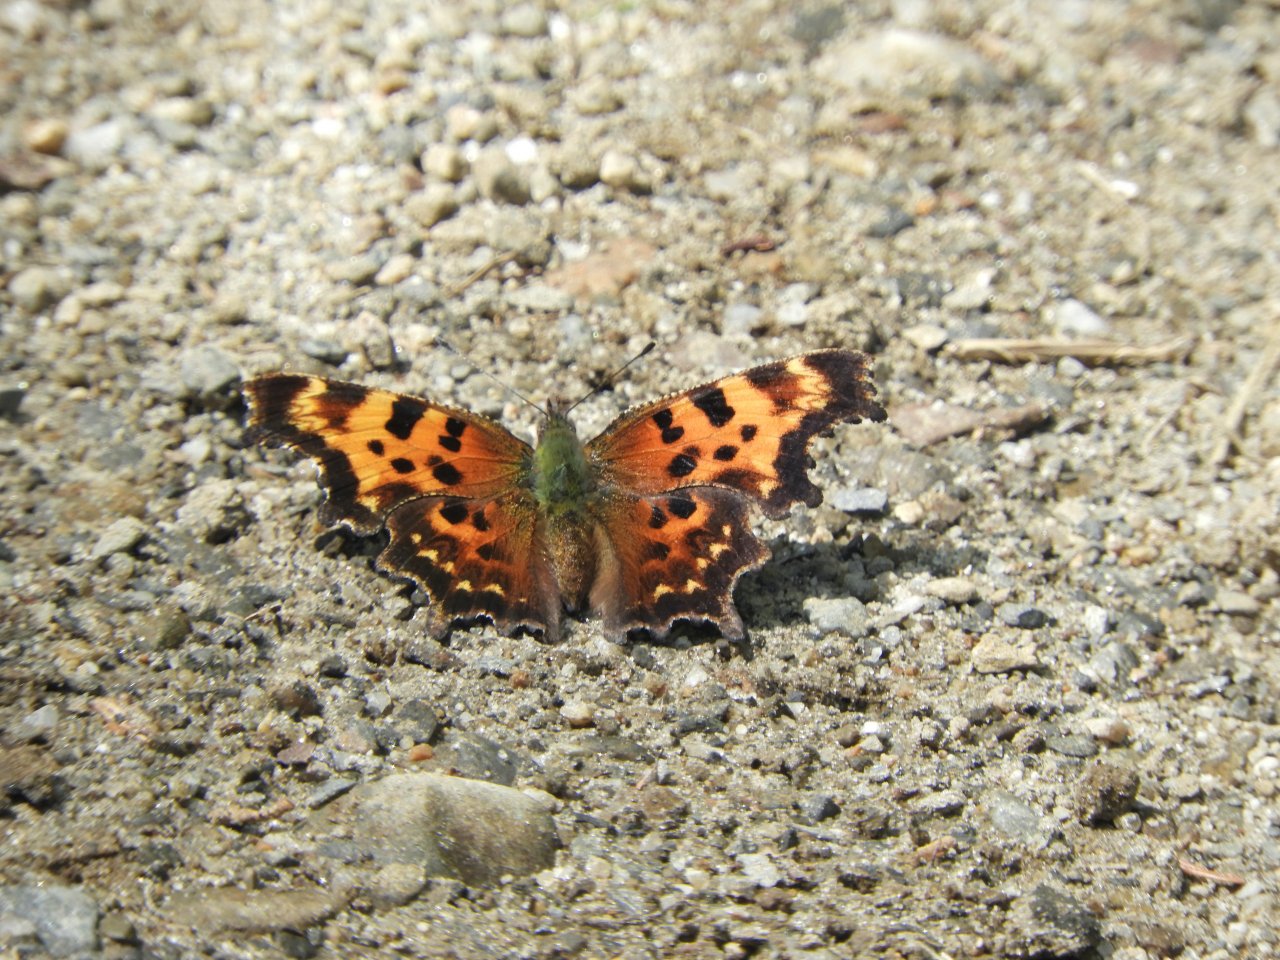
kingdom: Animalia
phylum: Arthropoda
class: Insecta
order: Lepidoptera
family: Nymphalidae
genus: Polygonia
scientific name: Polygonia faunus
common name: Green Comma
